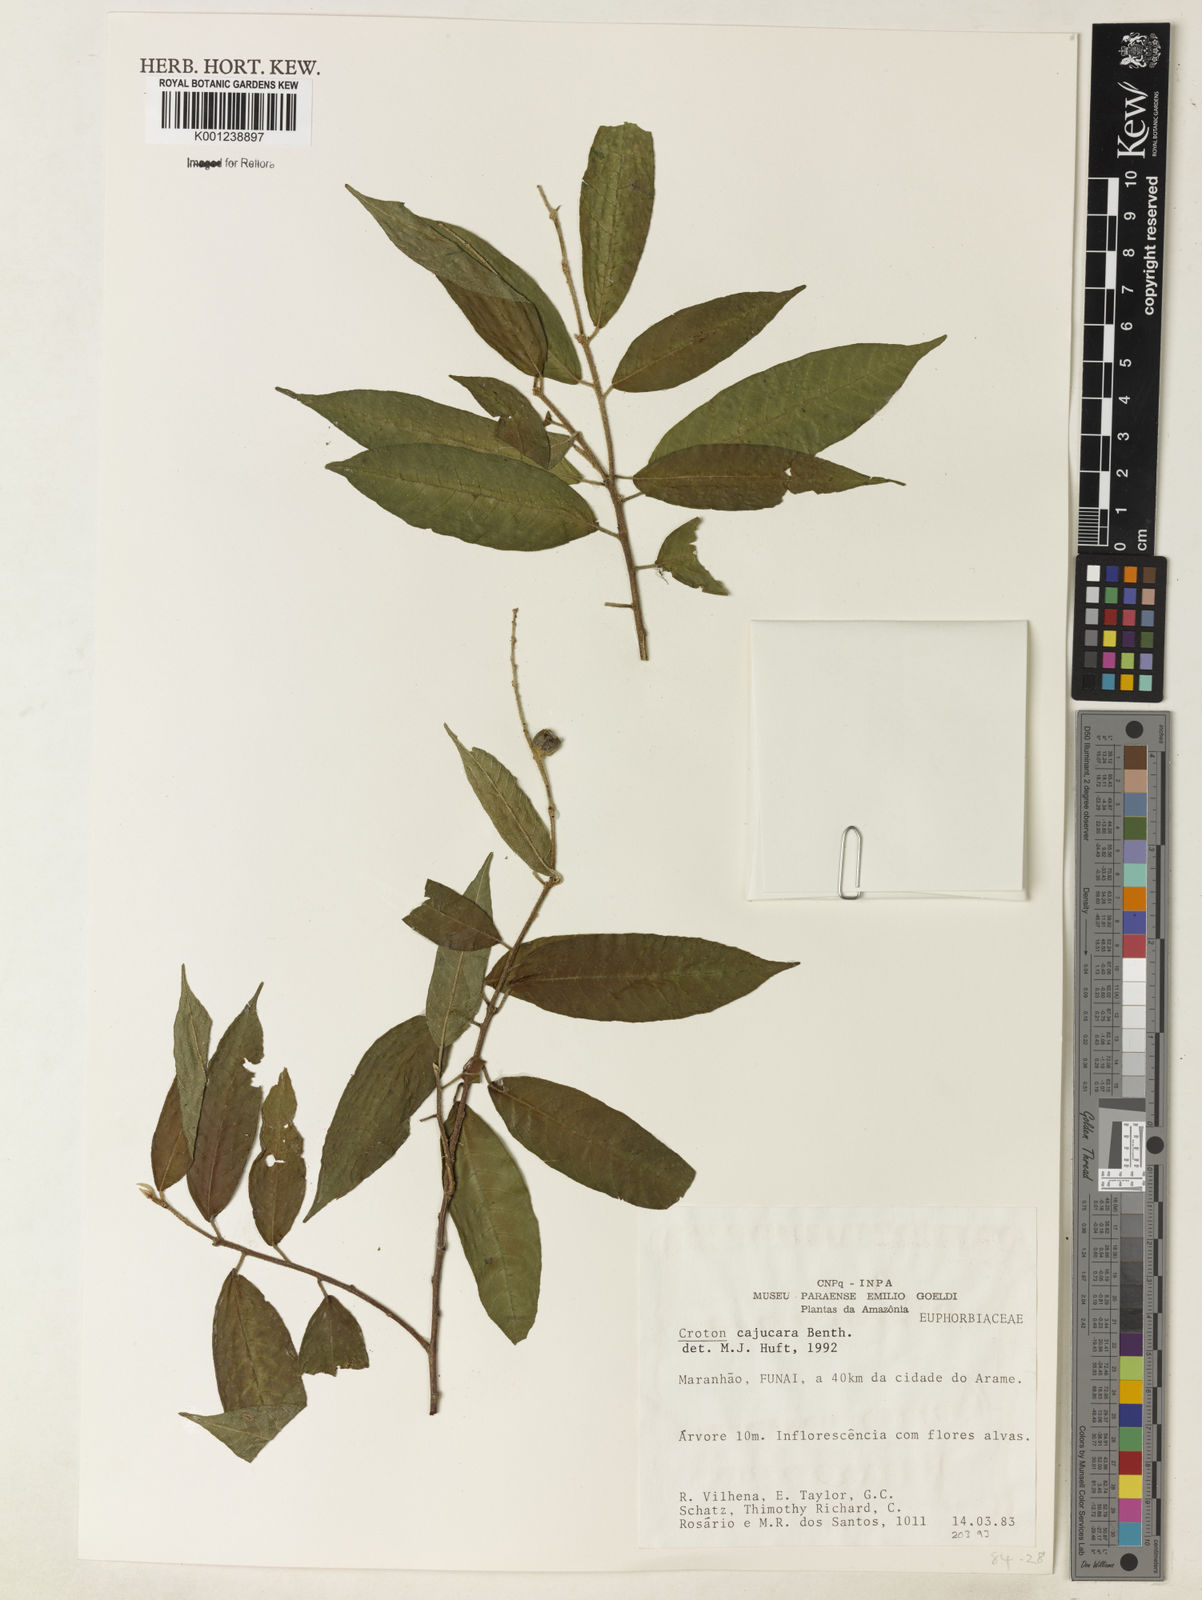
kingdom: Plantae
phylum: Tracheophyta
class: Magnoliopsida
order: Malpighiales
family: Euphorbiaceae
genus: Croton
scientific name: Croton cajucara
